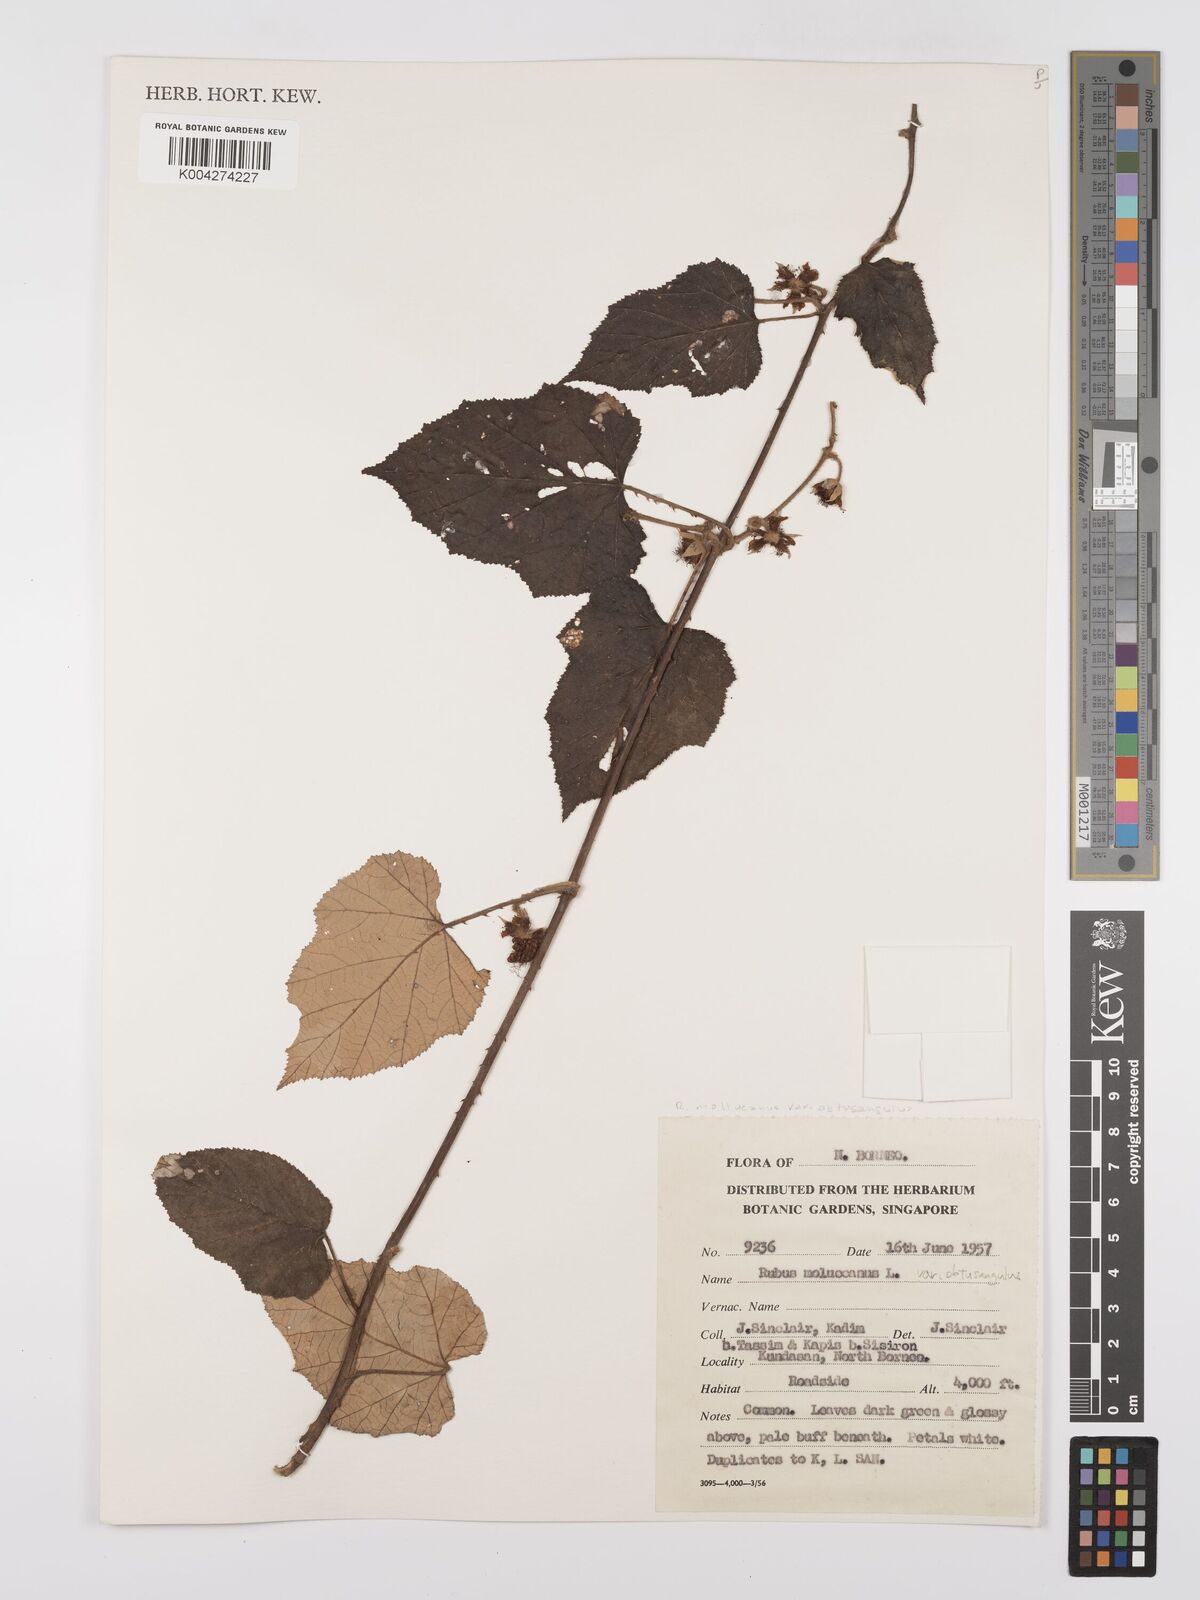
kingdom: Plantae
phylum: Tracheophyta
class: Magnoliopsida
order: Rosales
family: Rosaceae
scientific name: Rosaceae
